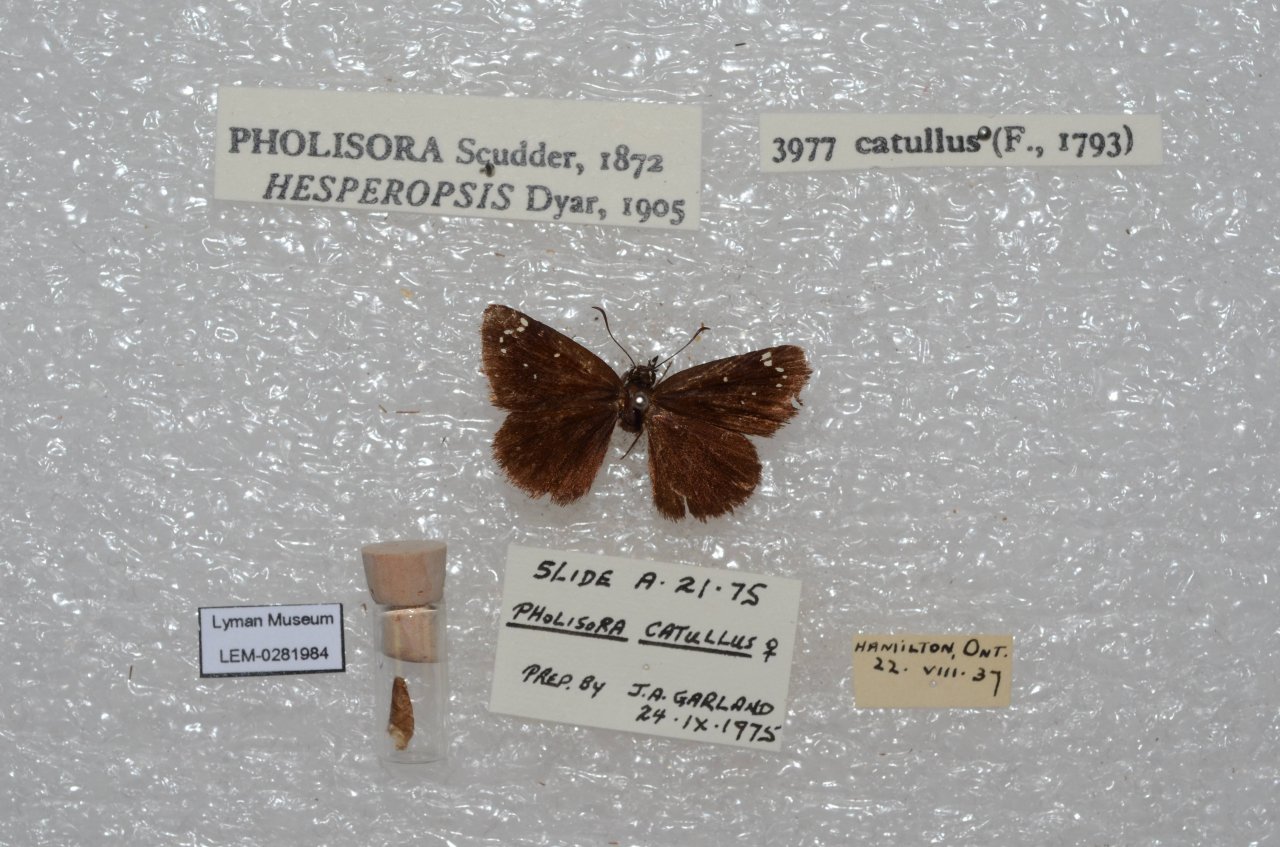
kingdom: Animalia
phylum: Arthropoda
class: Insecta
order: Lepidoptera
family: Hesperiidae
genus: Pholisora
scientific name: Pholisora catullus
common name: Common Sootywing
